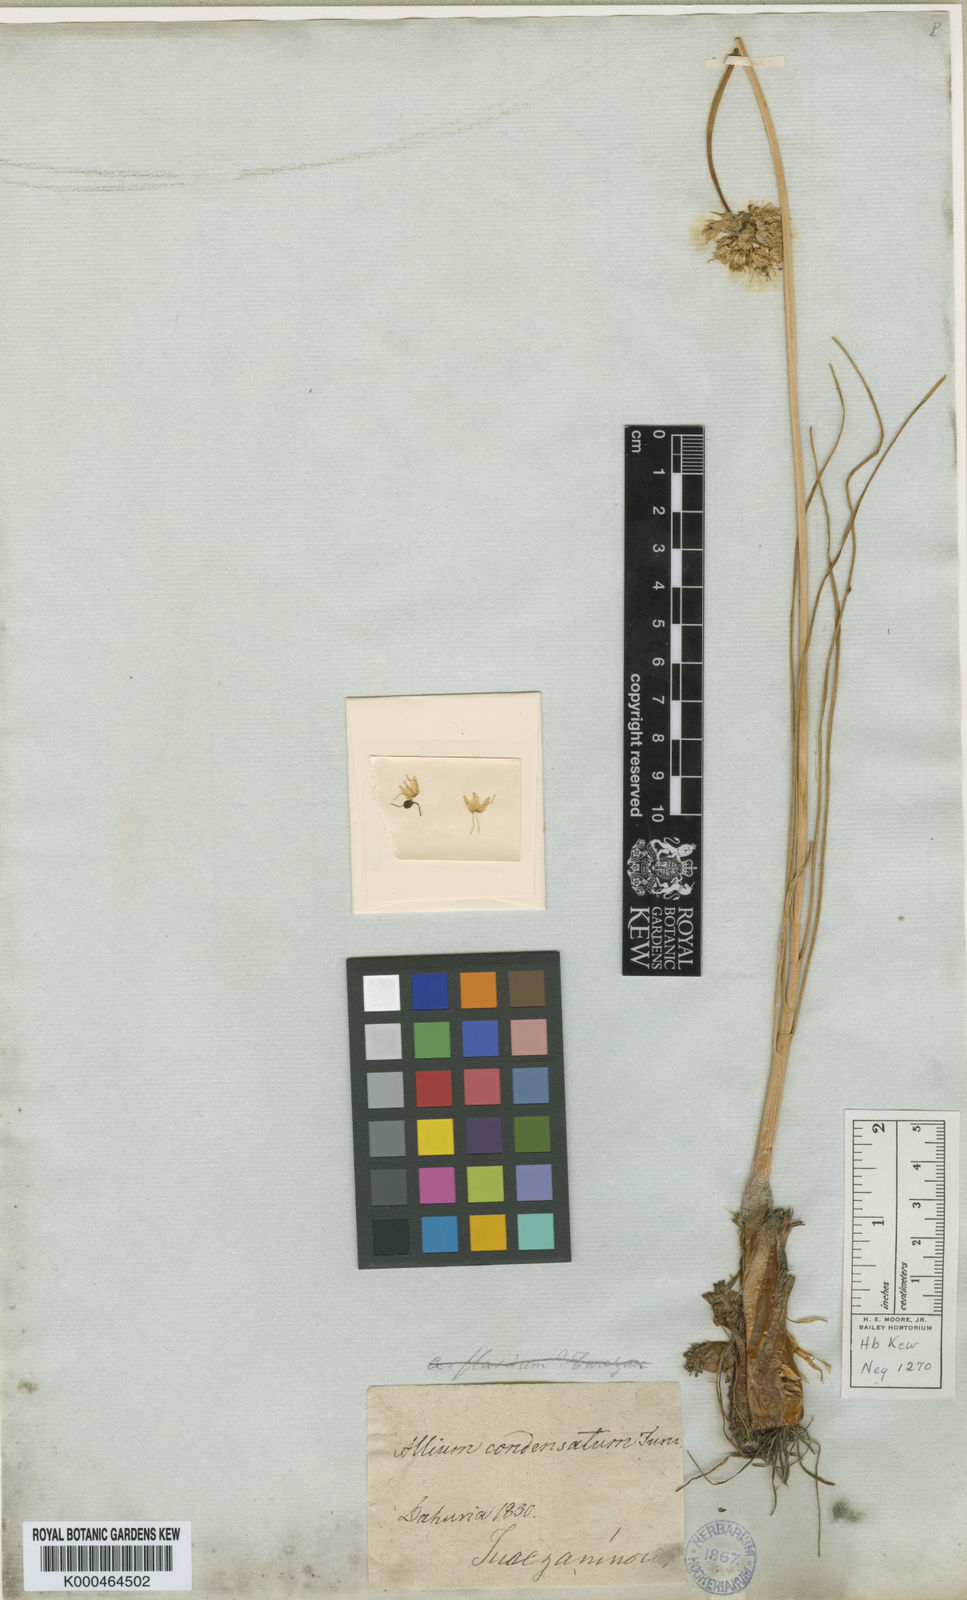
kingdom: Plantae
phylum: Tracheophyta
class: Liliopsida
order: Asparagales
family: Amaryllidaceae
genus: Allium
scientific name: Allium condensatum
